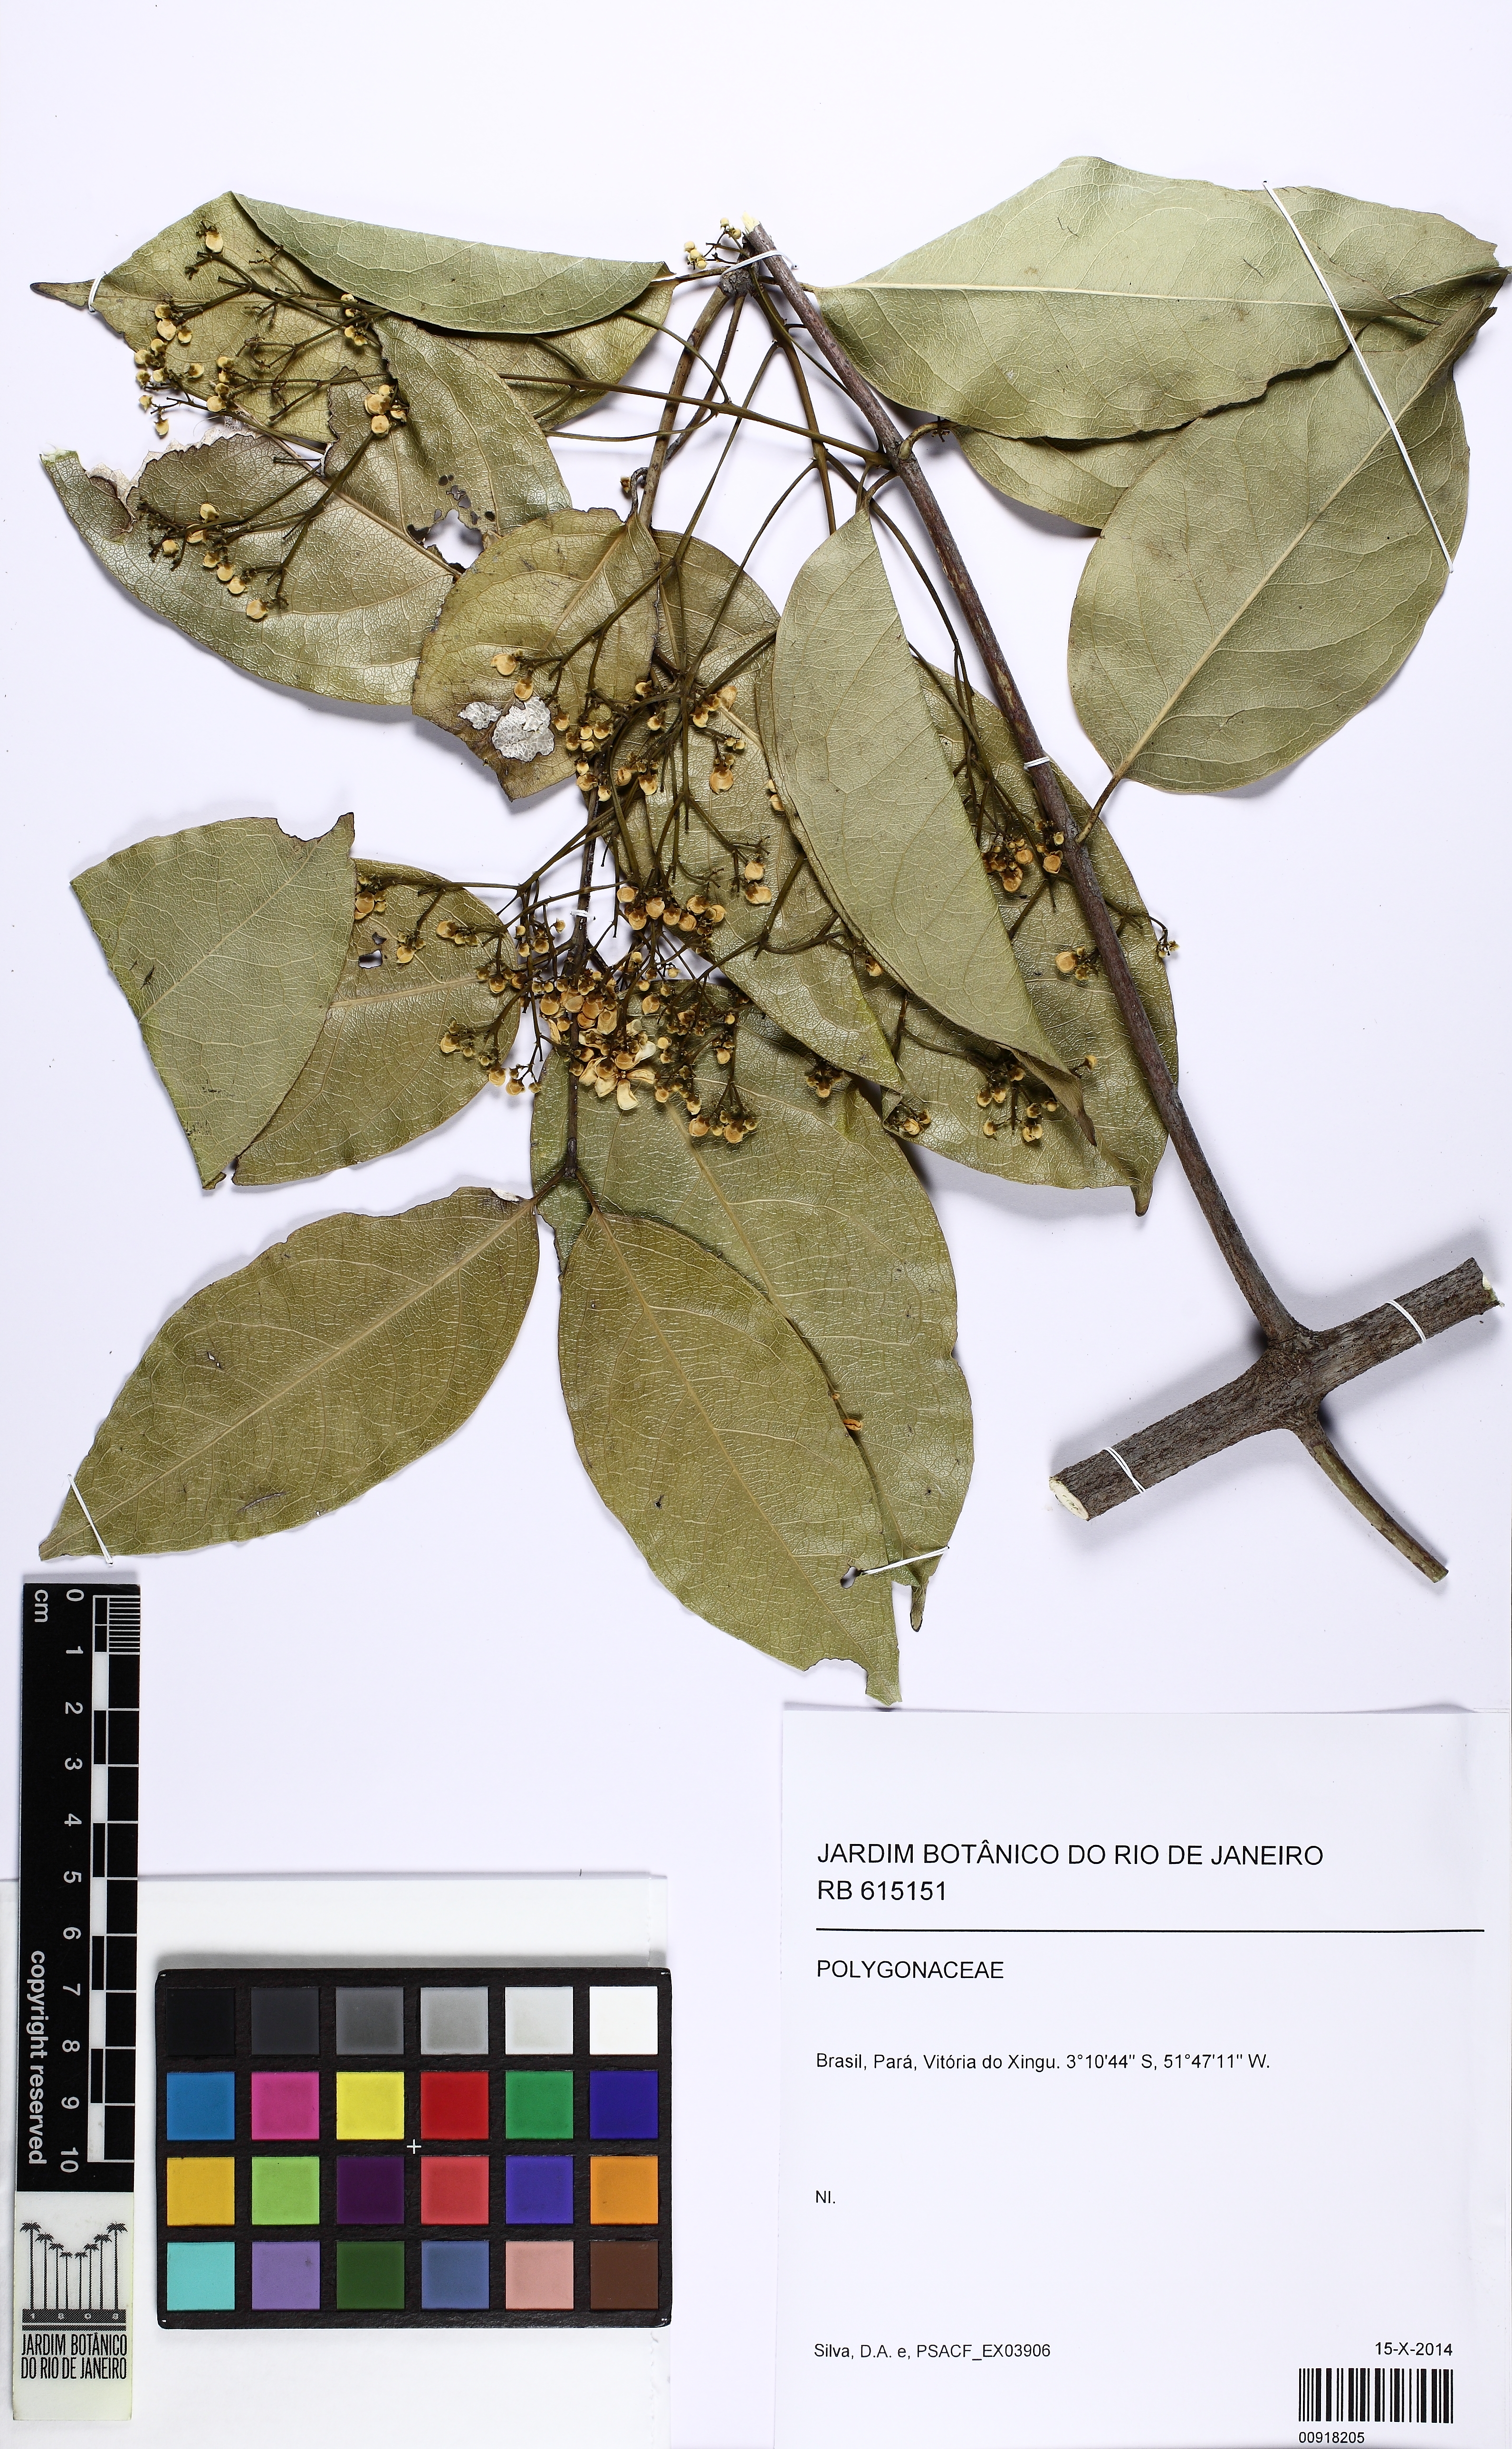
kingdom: Plantae
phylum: Tracheophyta
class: Magnoliopsida
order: Caryophyllales
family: Polygonaceae
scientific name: Polygonaceae
